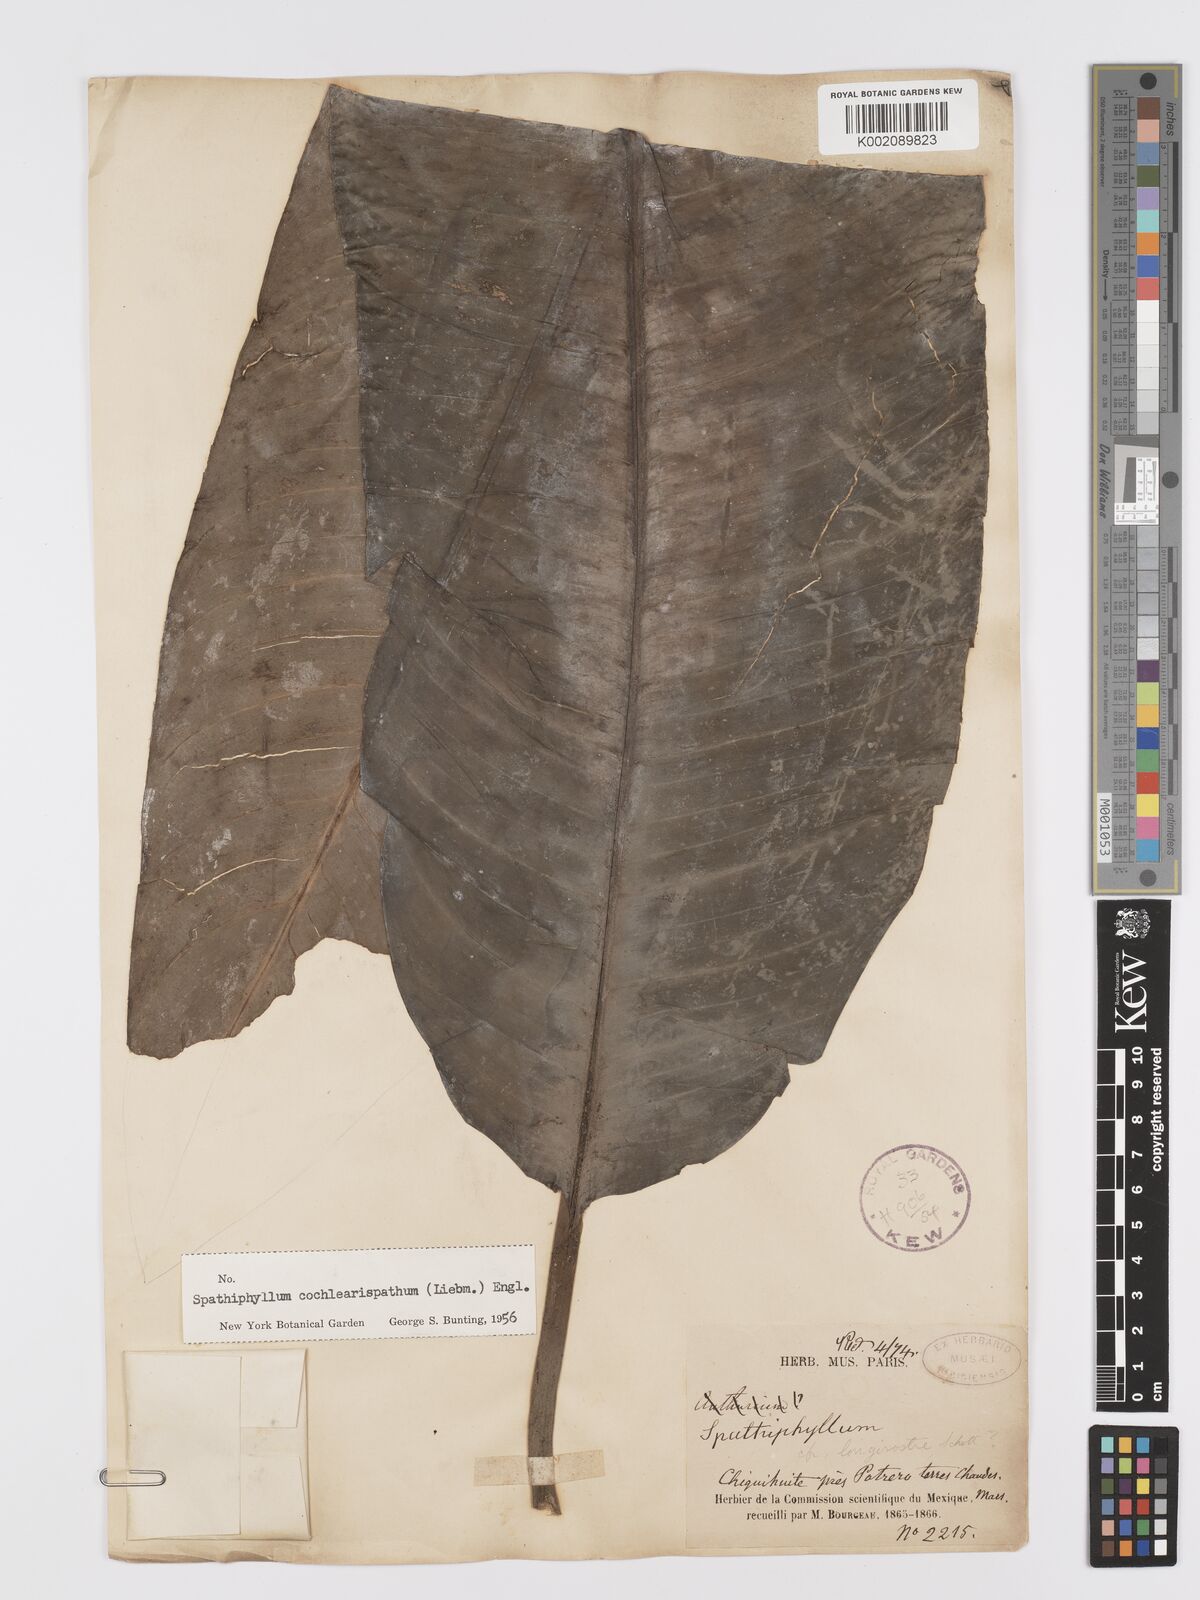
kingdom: Plantae
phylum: Tracheophyta
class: Liliopsida
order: Alismatales
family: Araceae
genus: Spathiphyllum
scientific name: Spathiphyllum cochlearispathum
